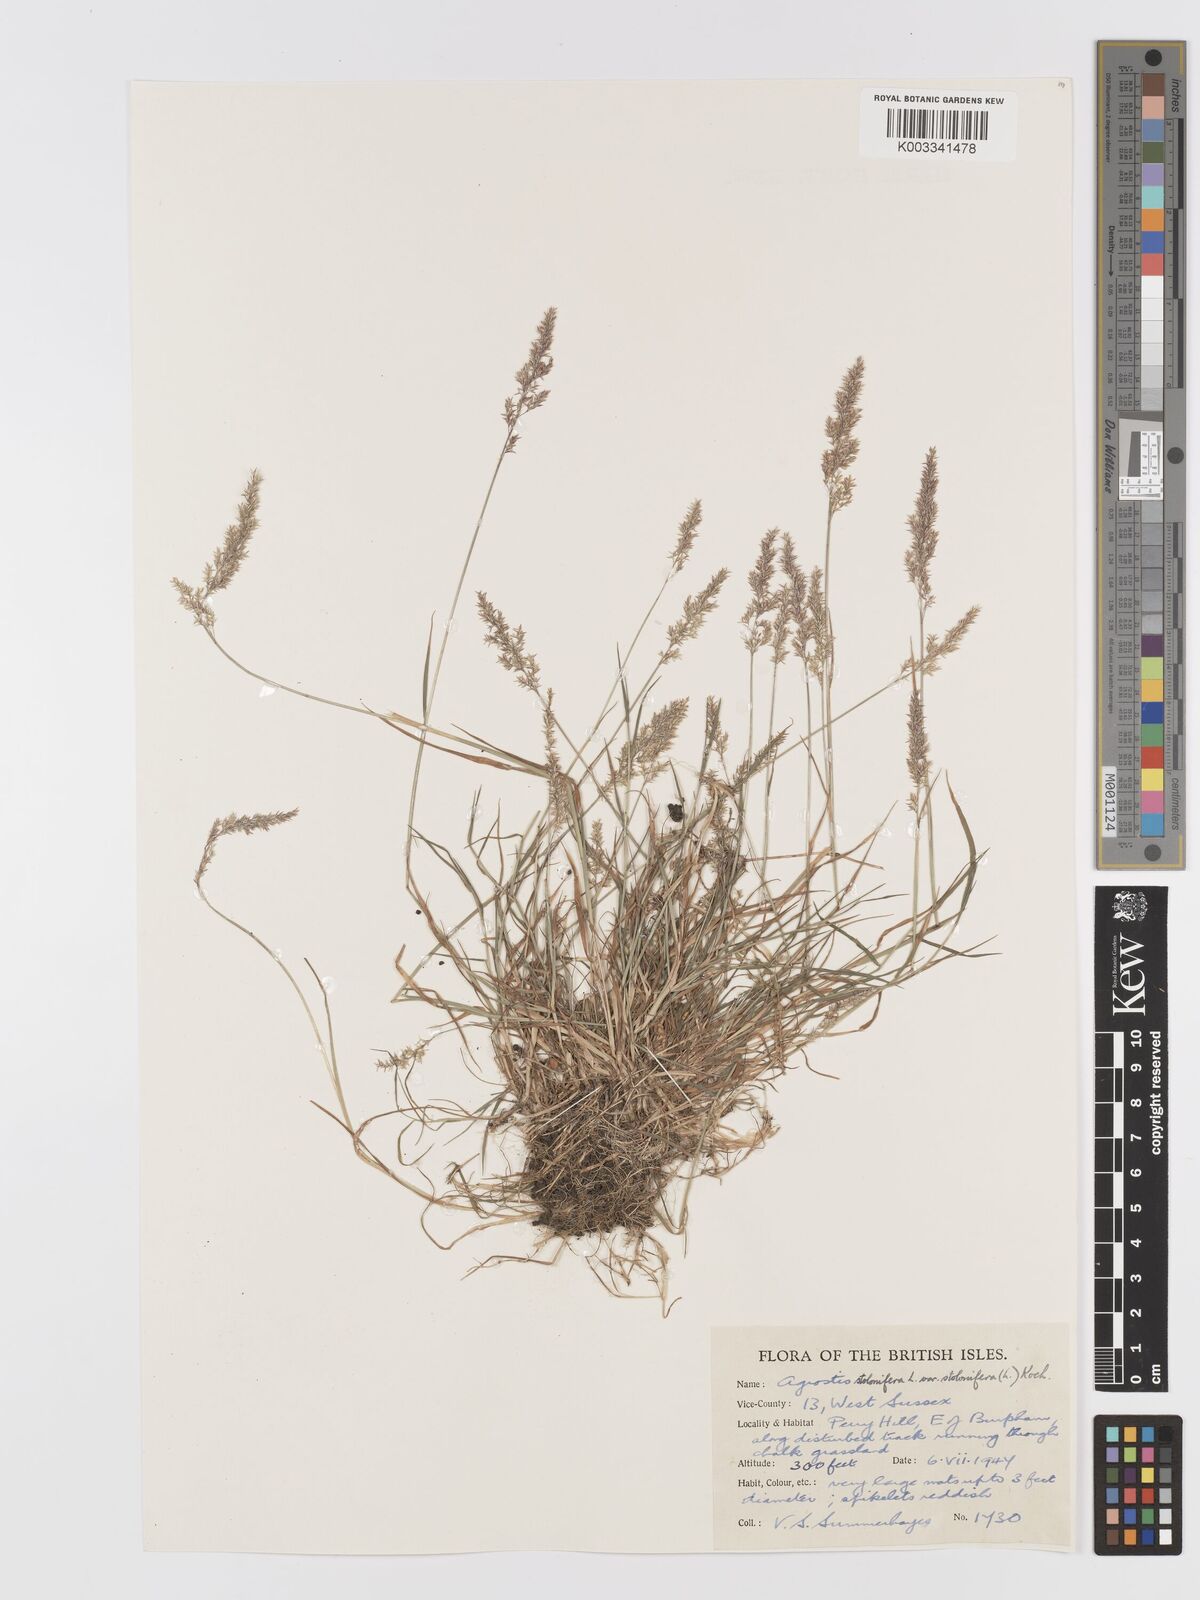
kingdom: Plantae
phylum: Tracheophyta
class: Liliopsida
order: Poales
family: Poaceae
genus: Agrostis
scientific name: Agrostis stolonifera
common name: Creeping bentgrass
